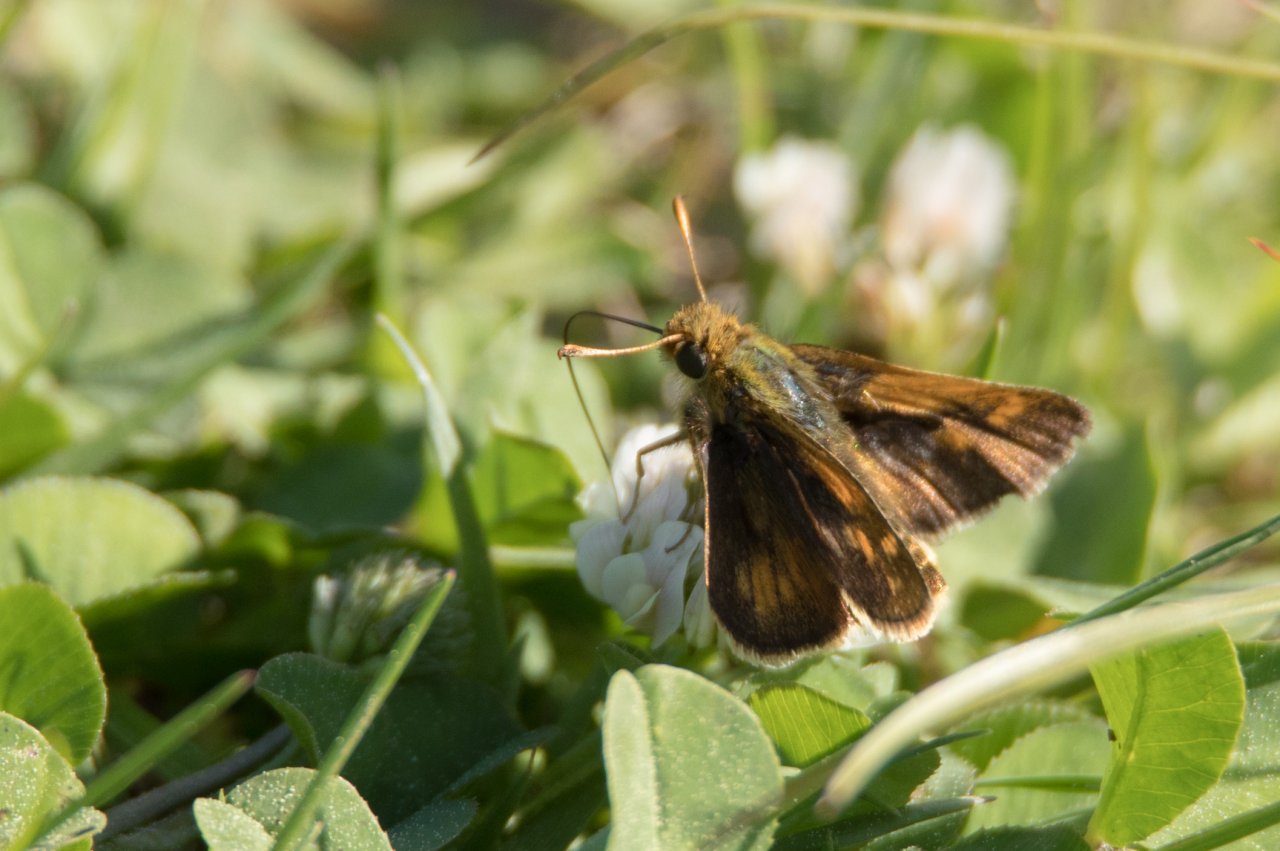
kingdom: Animalia
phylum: Arthropoda
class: Insecta
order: Lepidoptera
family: Hesperiidae
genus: Polites
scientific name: Polites coras
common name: Peck's Skipper
